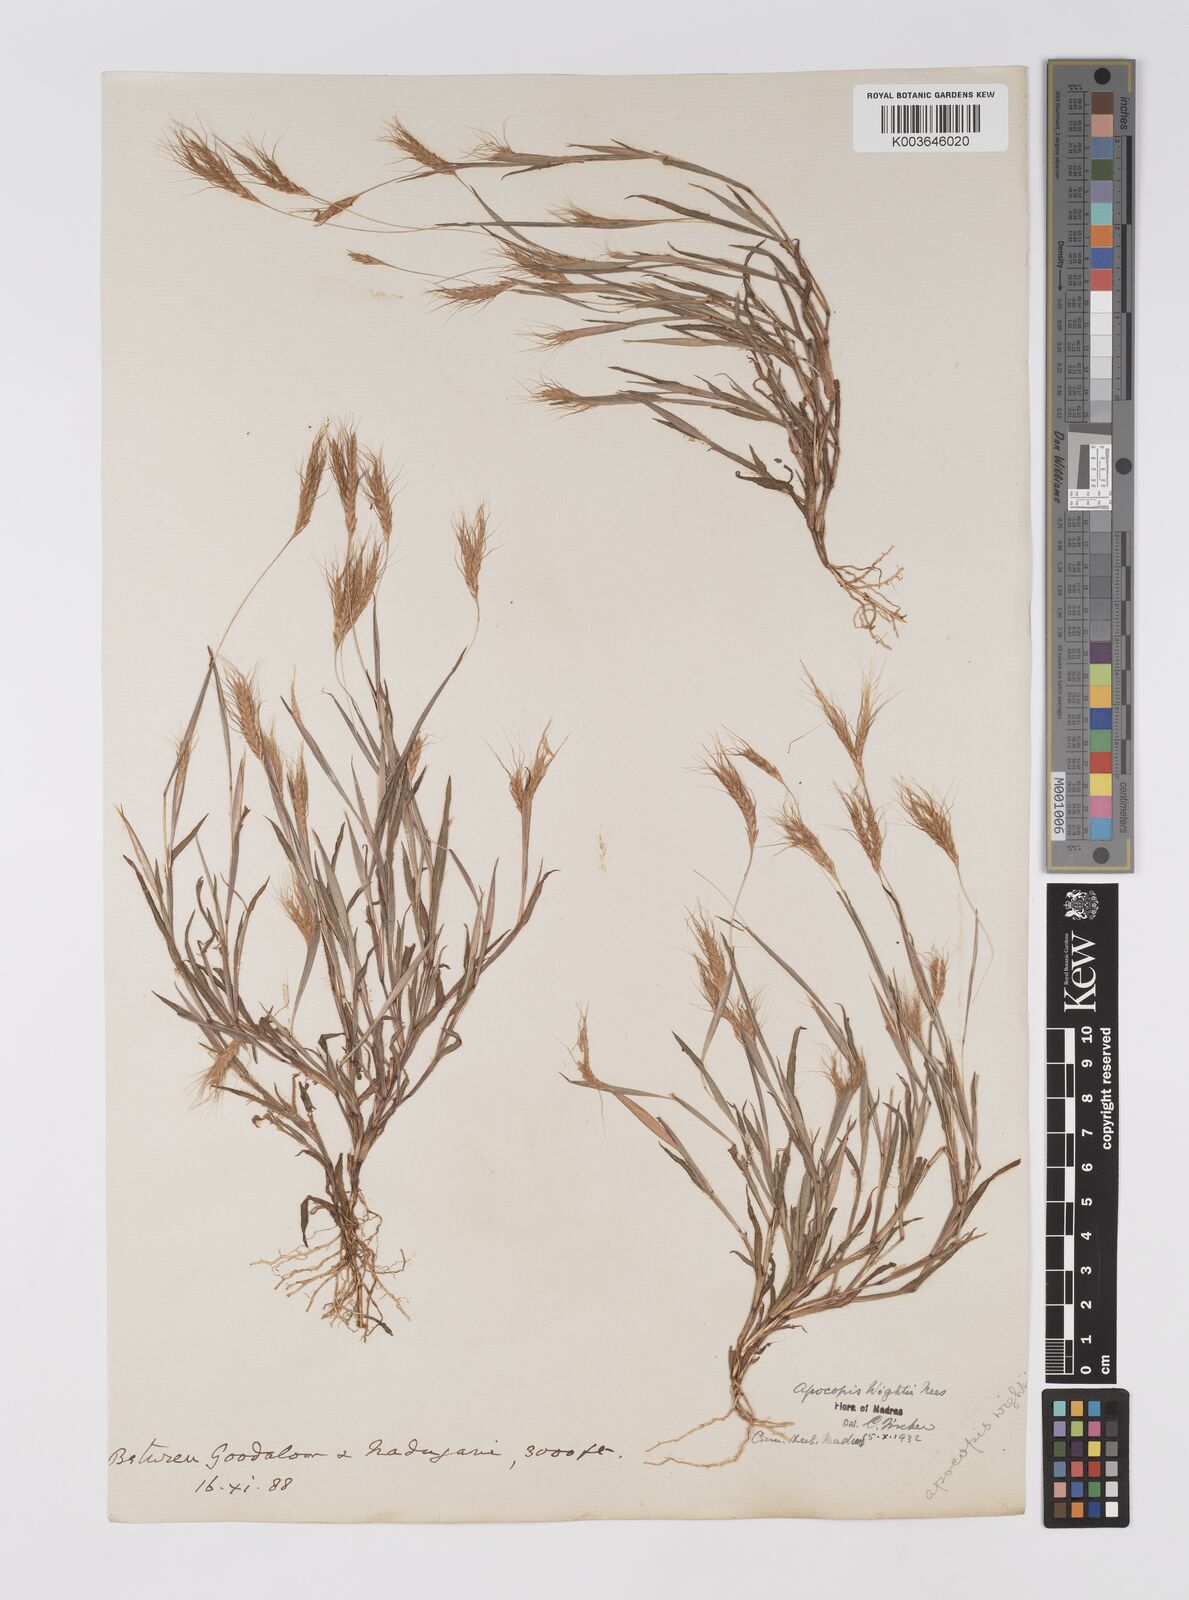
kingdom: Plantae
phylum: Tracheophyta
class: Liliopsida
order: Poales
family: Poaceae
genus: Apocopis
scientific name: Apocopis mangalorensis
